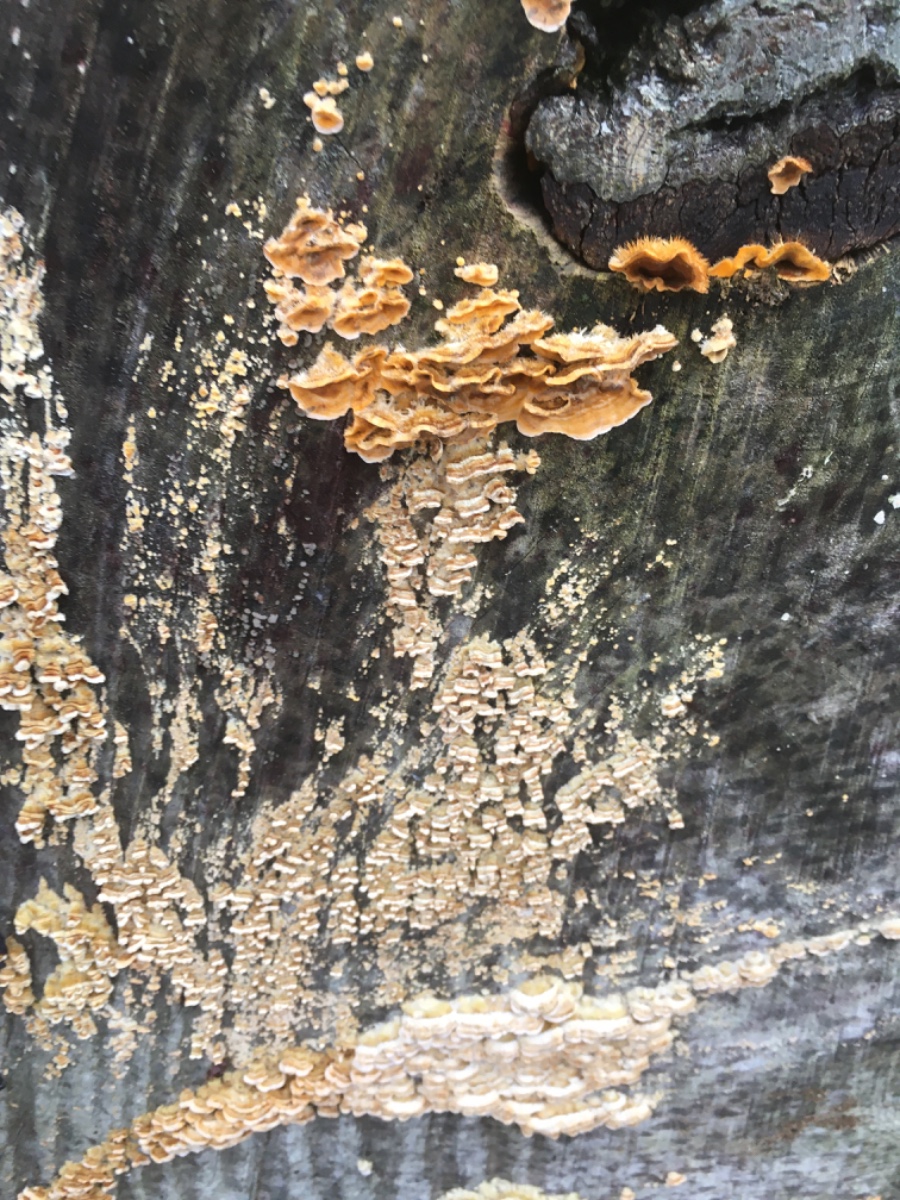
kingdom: Fungi
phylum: Basidiomycota
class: Agaricomycetes
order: Russulales
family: Stereaceae
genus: Stereum
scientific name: Stereum hirsutum
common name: håret lædersvamp
